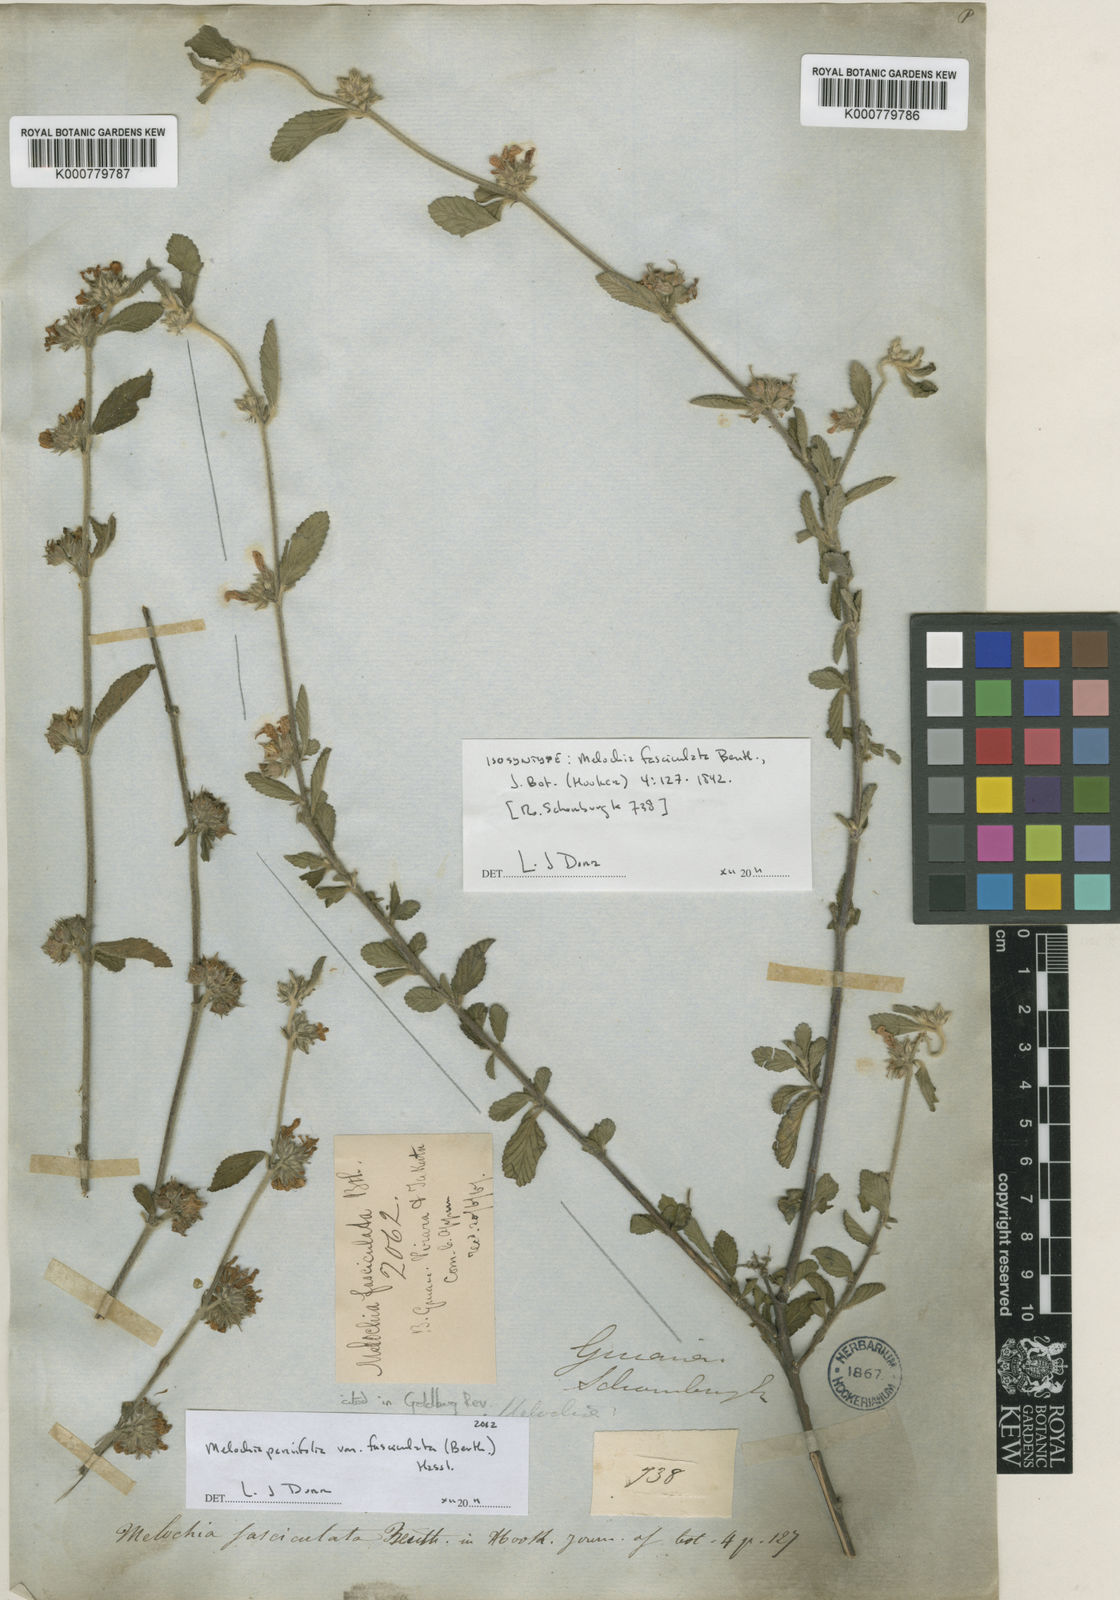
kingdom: Plantae
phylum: Tracheophyta
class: Magnoliopsida
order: Malvales
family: Malvaceae
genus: Melochia
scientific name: Melochia parvifolia
